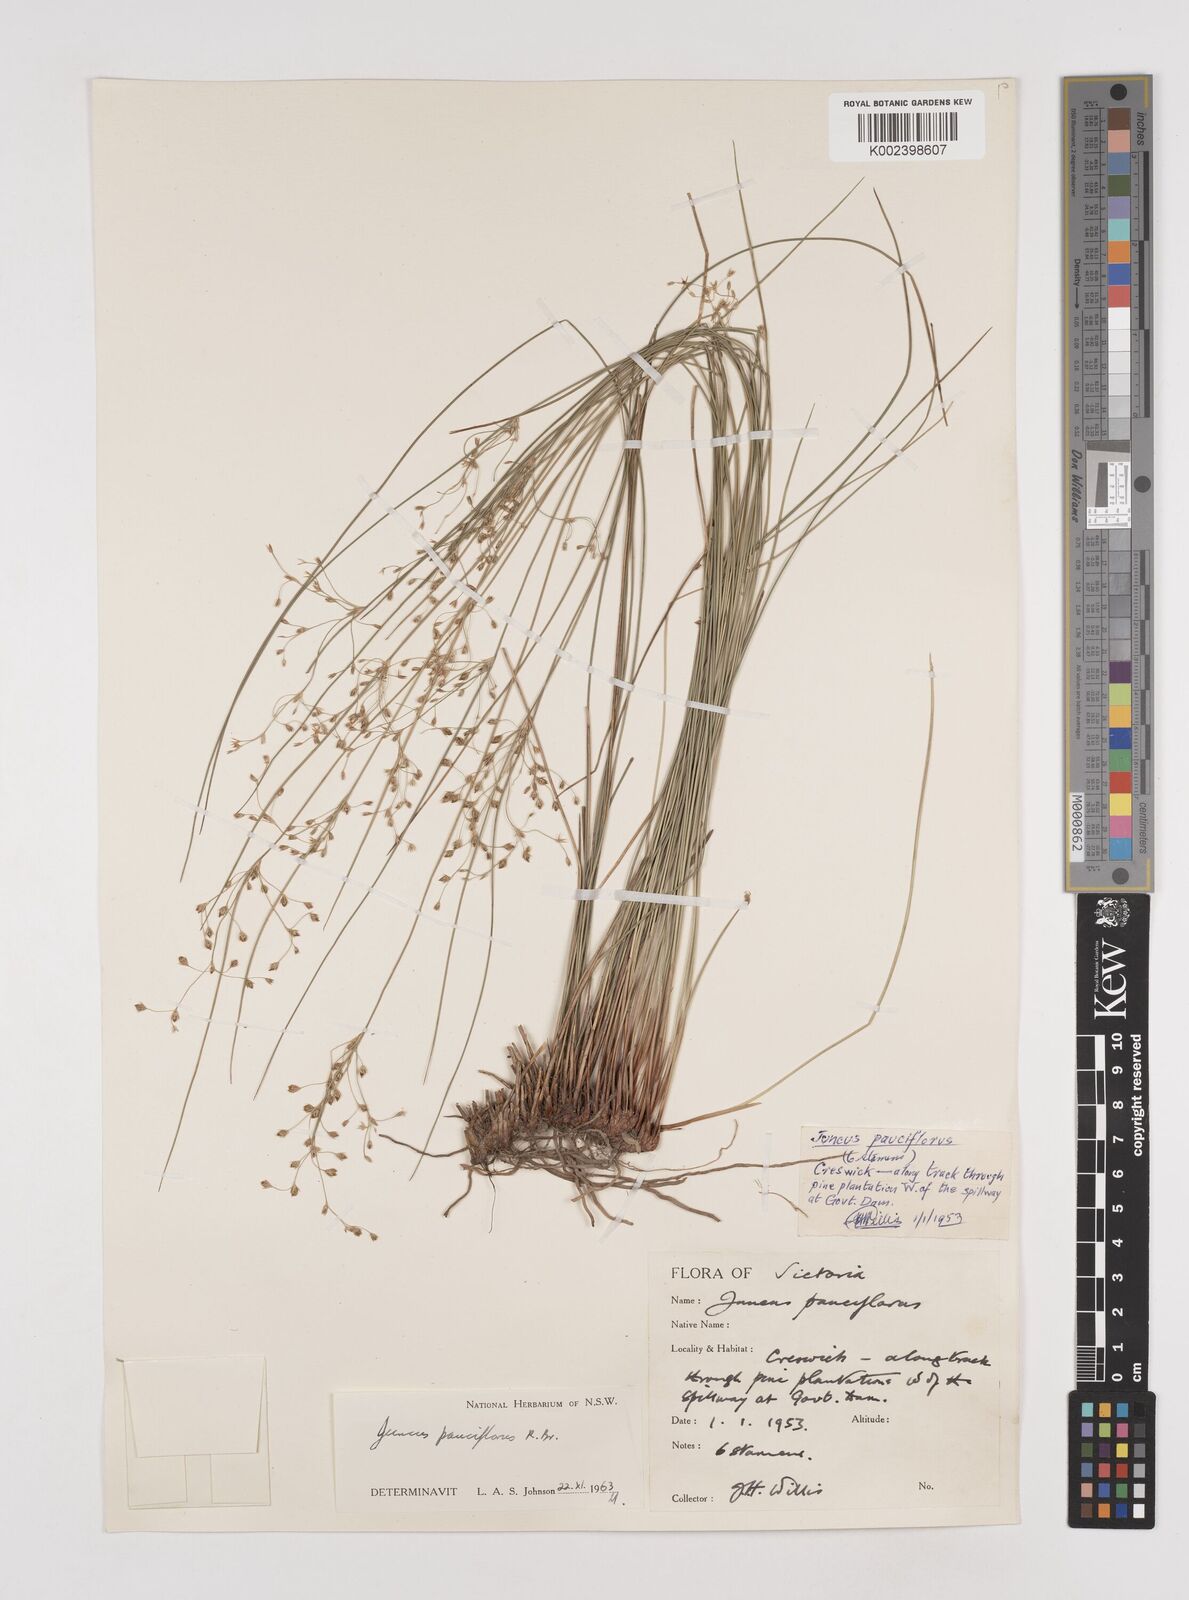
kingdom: Plantae
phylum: Tracheophyta
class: Liliopsida
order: Poales
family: Juncaceae
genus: Juncus
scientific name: Juncus pauciflorus
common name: Loose-flowered rush
